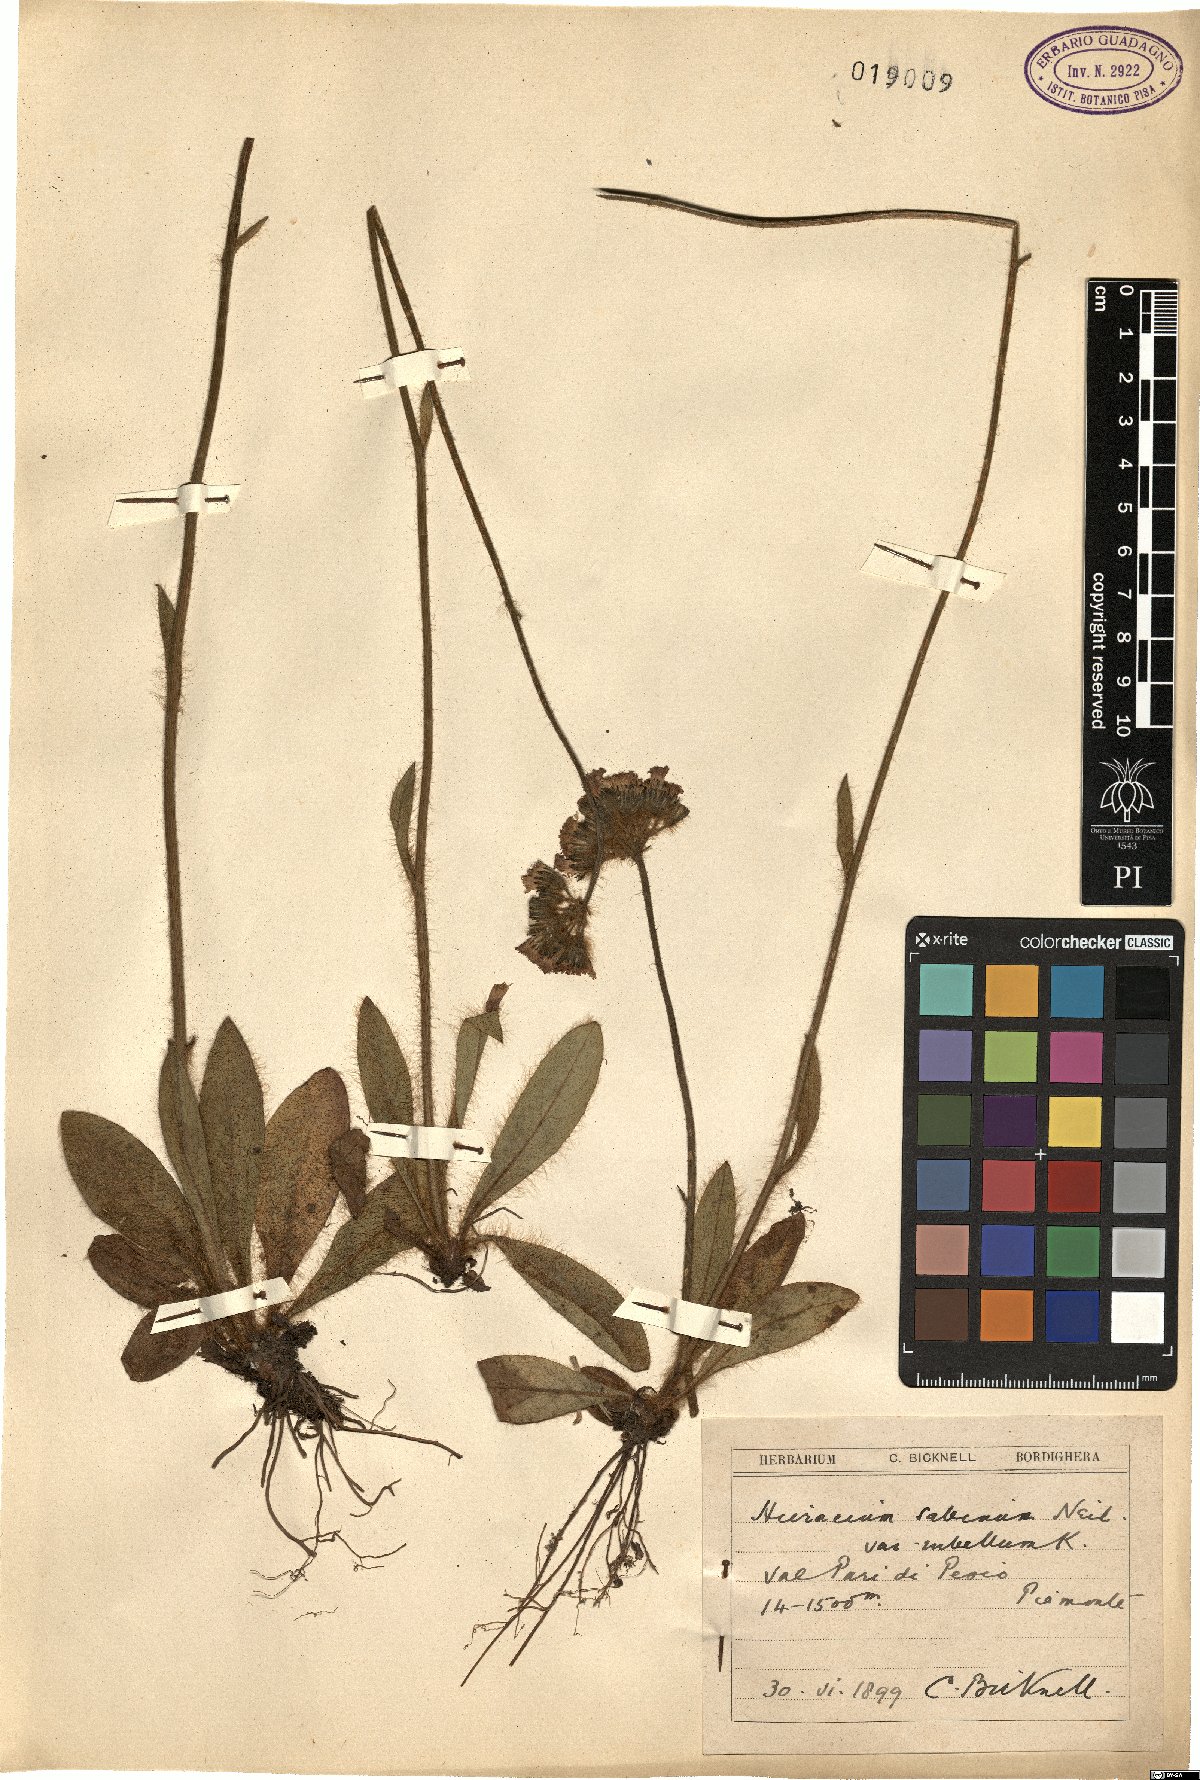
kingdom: Plantae
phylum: Tracheophyta
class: Magnoliopsida
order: Asterales
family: Asteraceae
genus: Pilosella
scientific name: Pilosella guthnikiana
